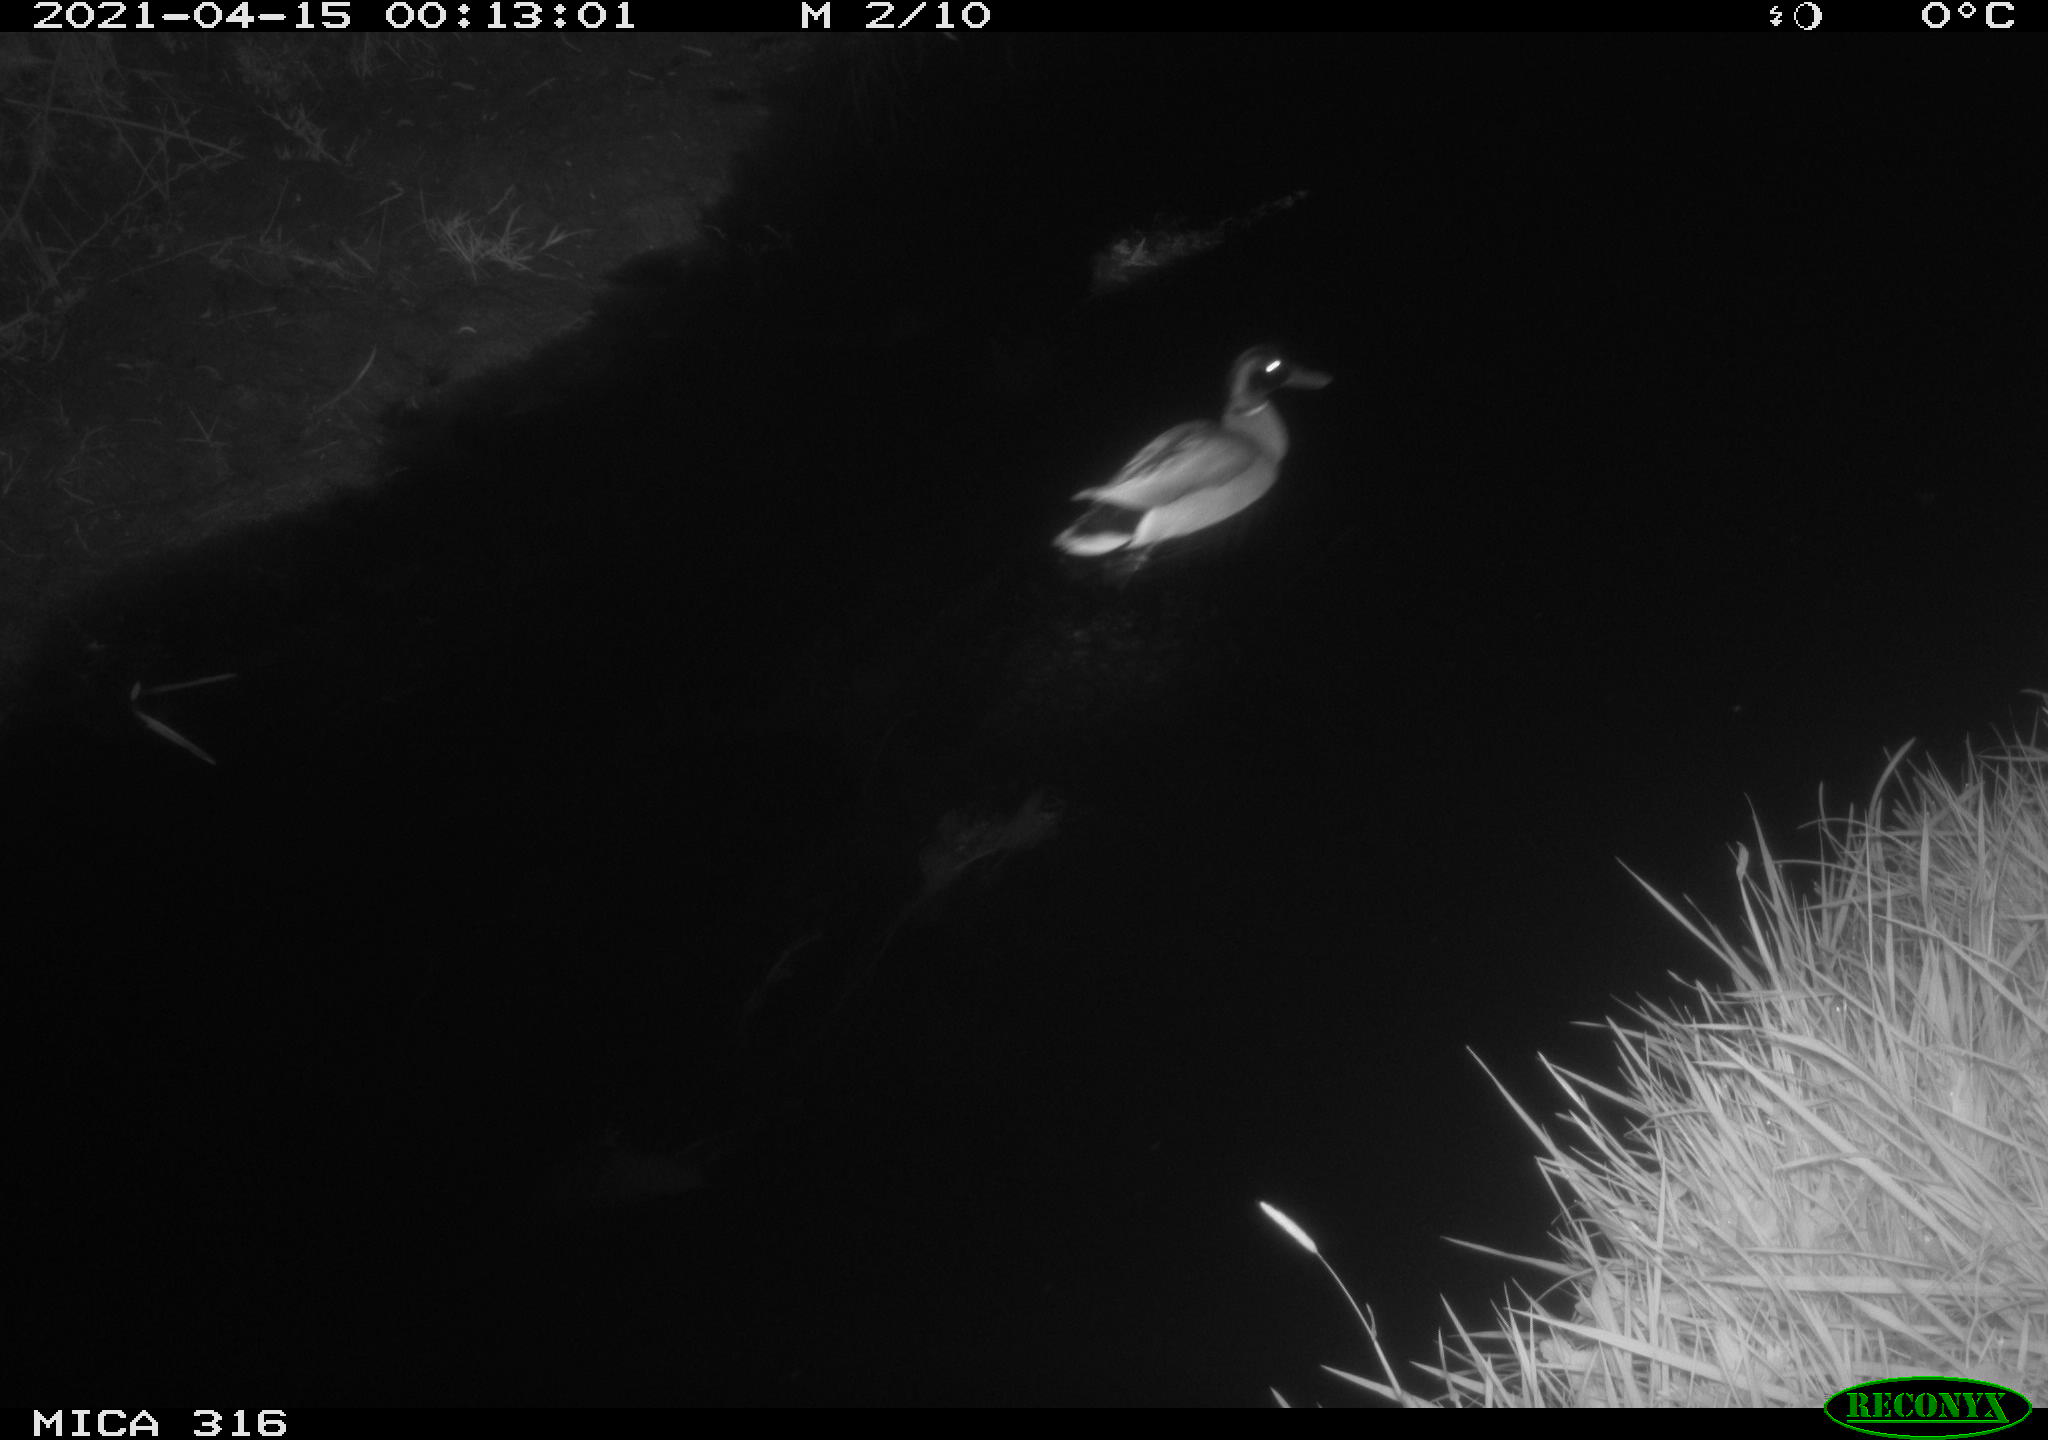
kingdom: Animalia
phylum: Chordata
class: Aves
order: Anseriformes
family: Anatidae
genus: Anas
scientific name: Anas platyrhynchos
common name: Mallard
